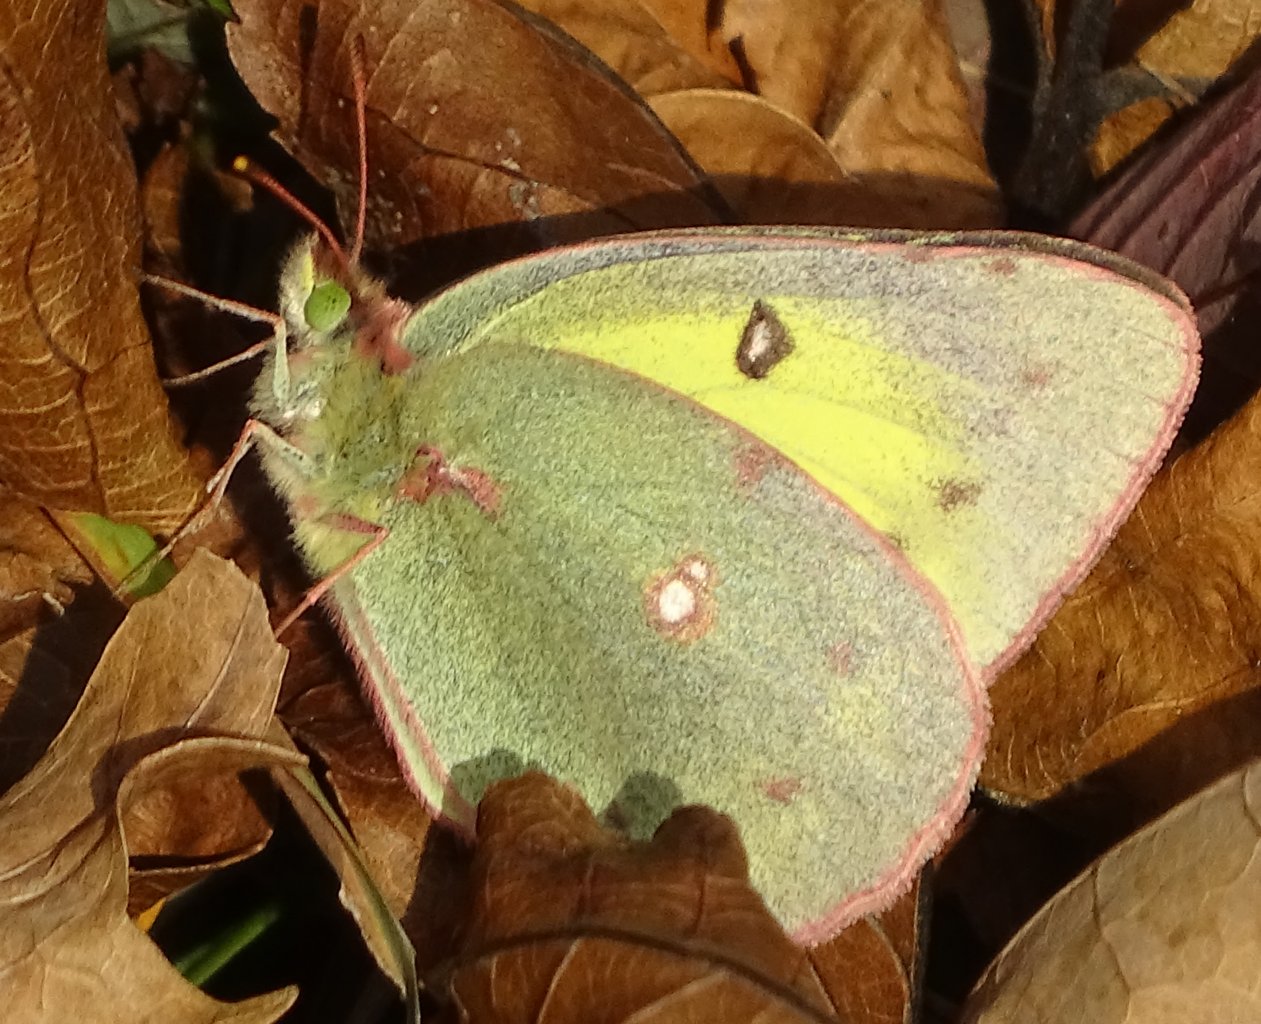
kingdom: Animalia
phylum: Arthropoda
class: Insecta
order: Lepidoptera
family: Pieridae
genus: Colias
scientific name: Colias philodice
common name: Clouded Sulphur
